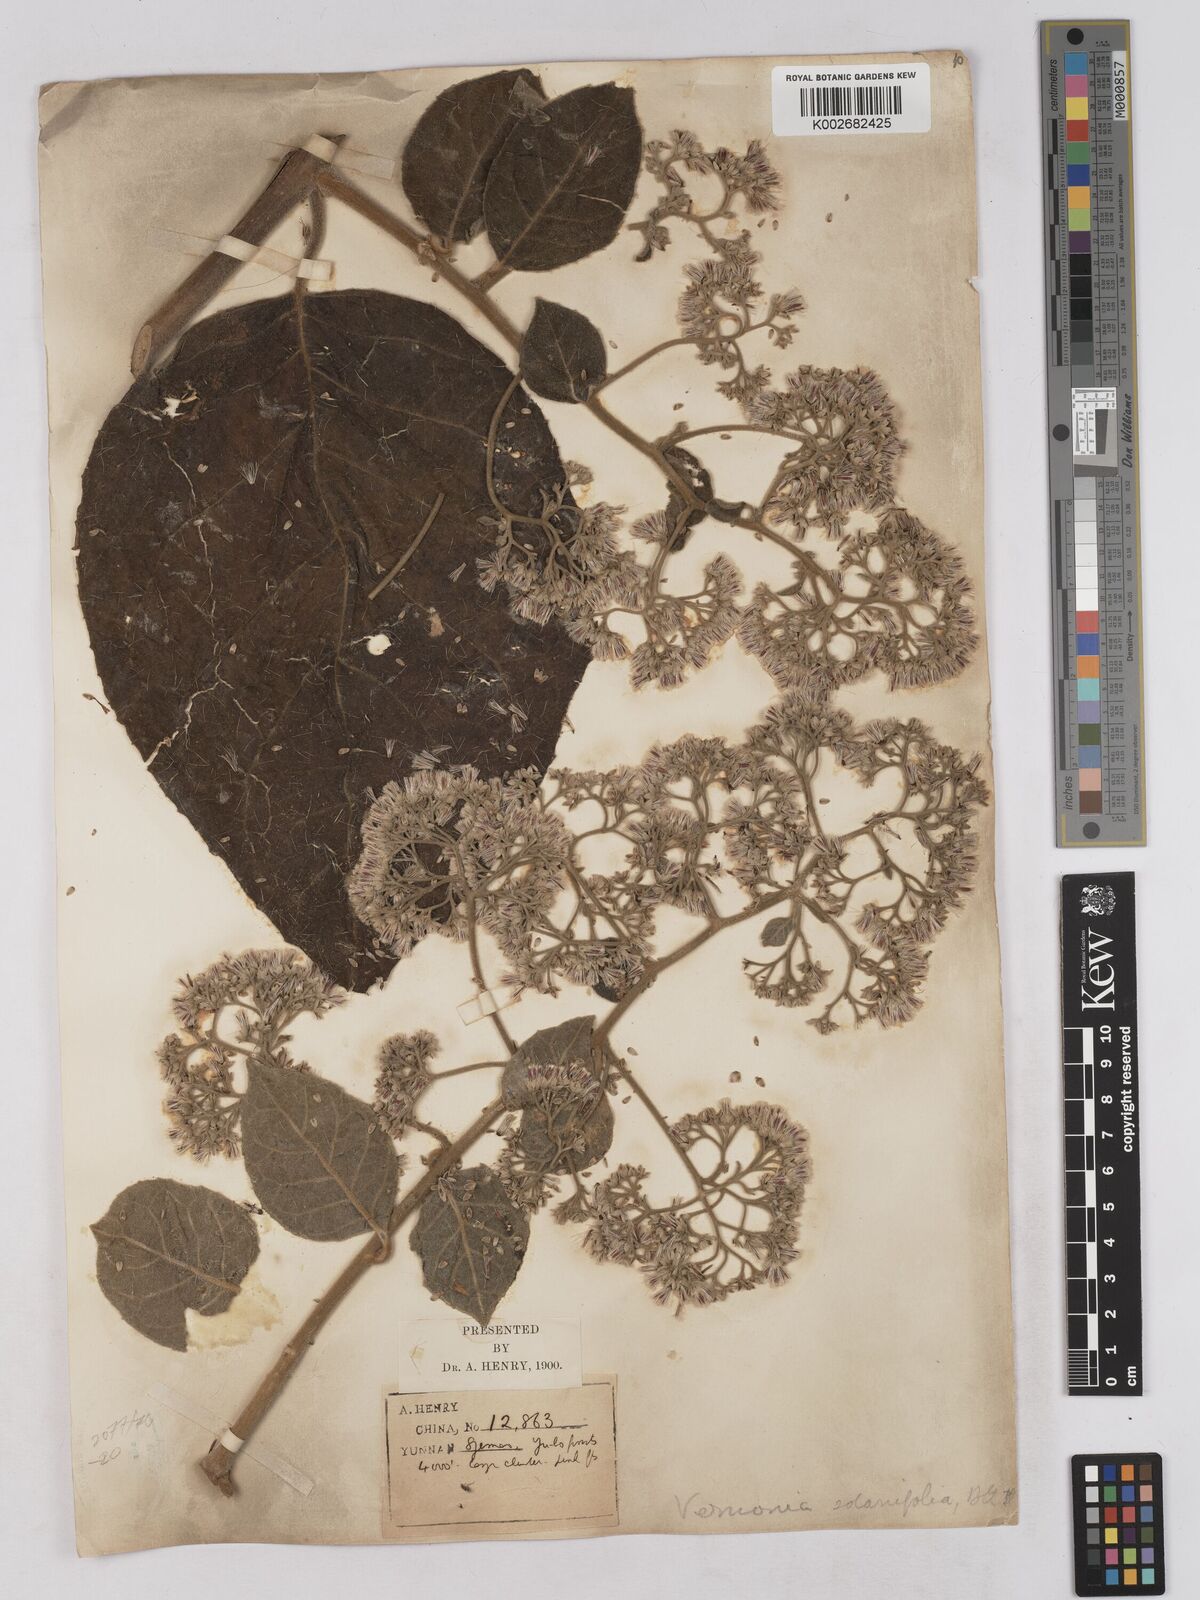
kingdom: Plantae
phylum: Tracheophyta
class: Magnoliopsida
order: Asterales
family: Asteraceae
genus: Strobocalyx
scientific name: Strobocalyx solanifolia
